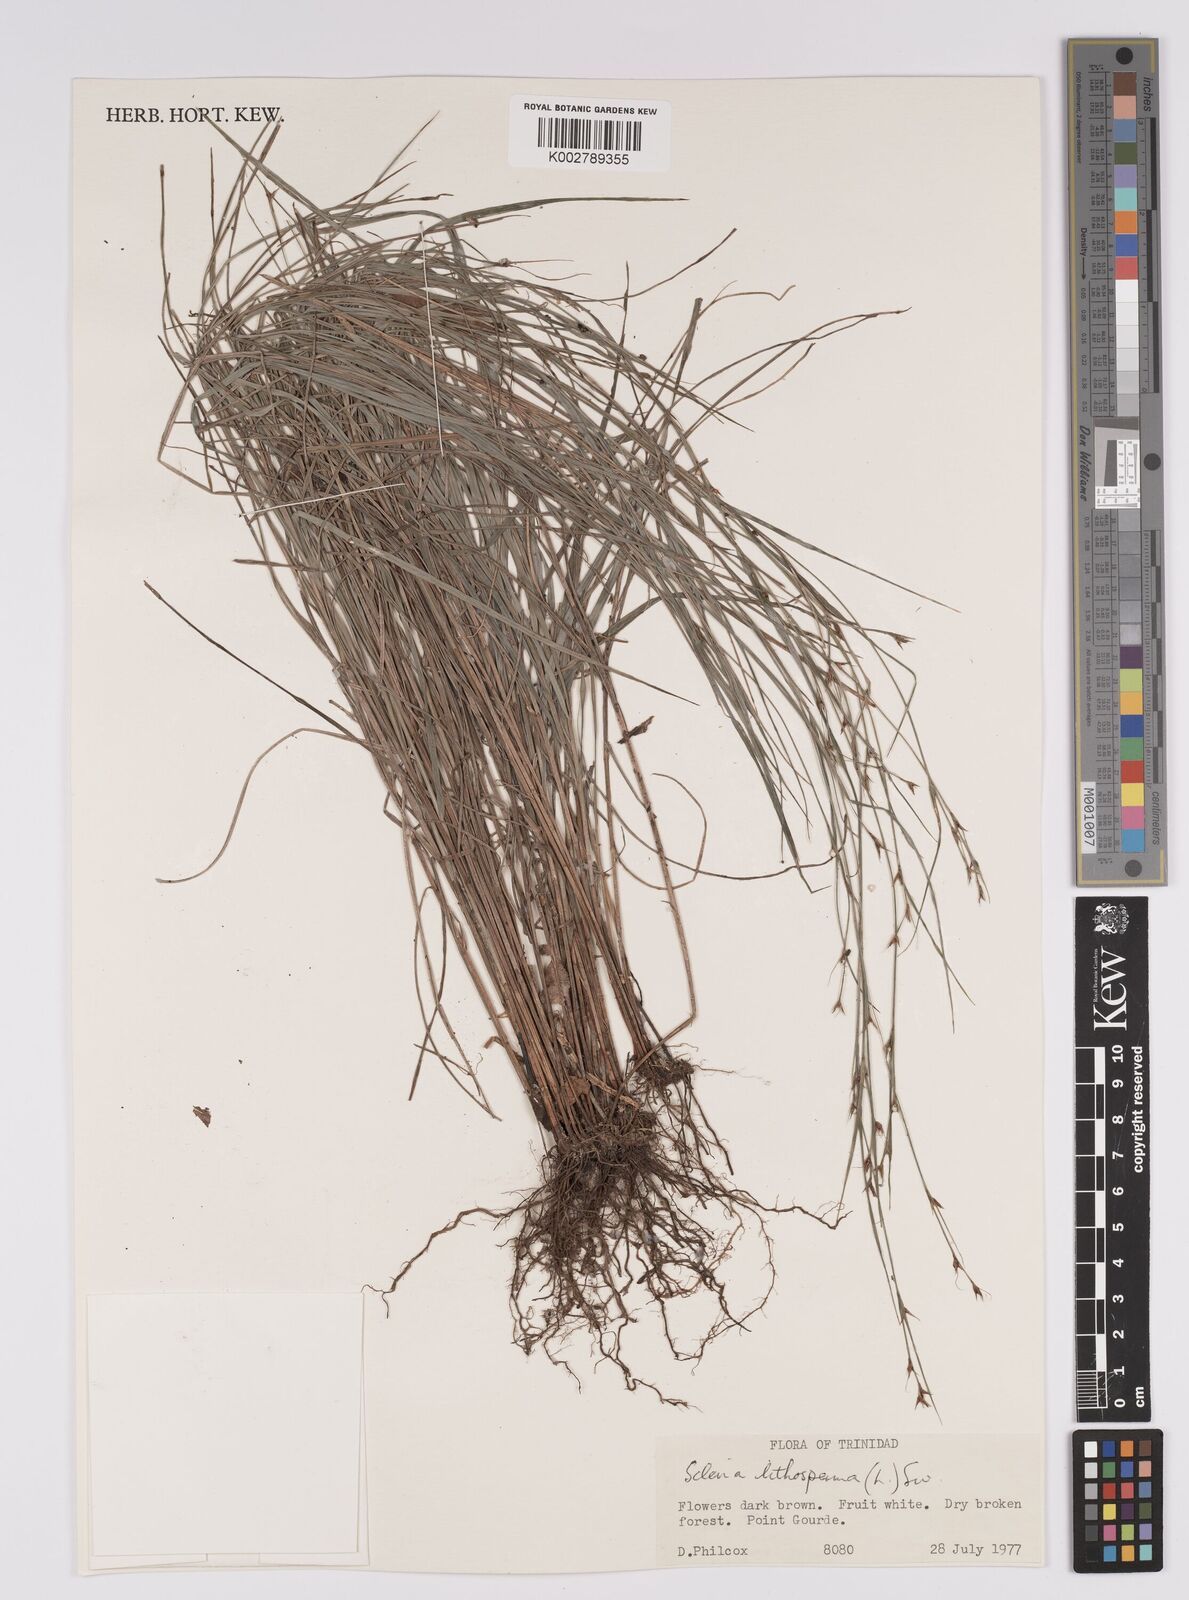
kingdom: Plantae
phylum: Tracheophyta
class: Liliopsida
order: Poales
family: Cyperaceae
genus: Scleria
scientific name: Scleria lithosperma
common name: Florida keys nut-rush
